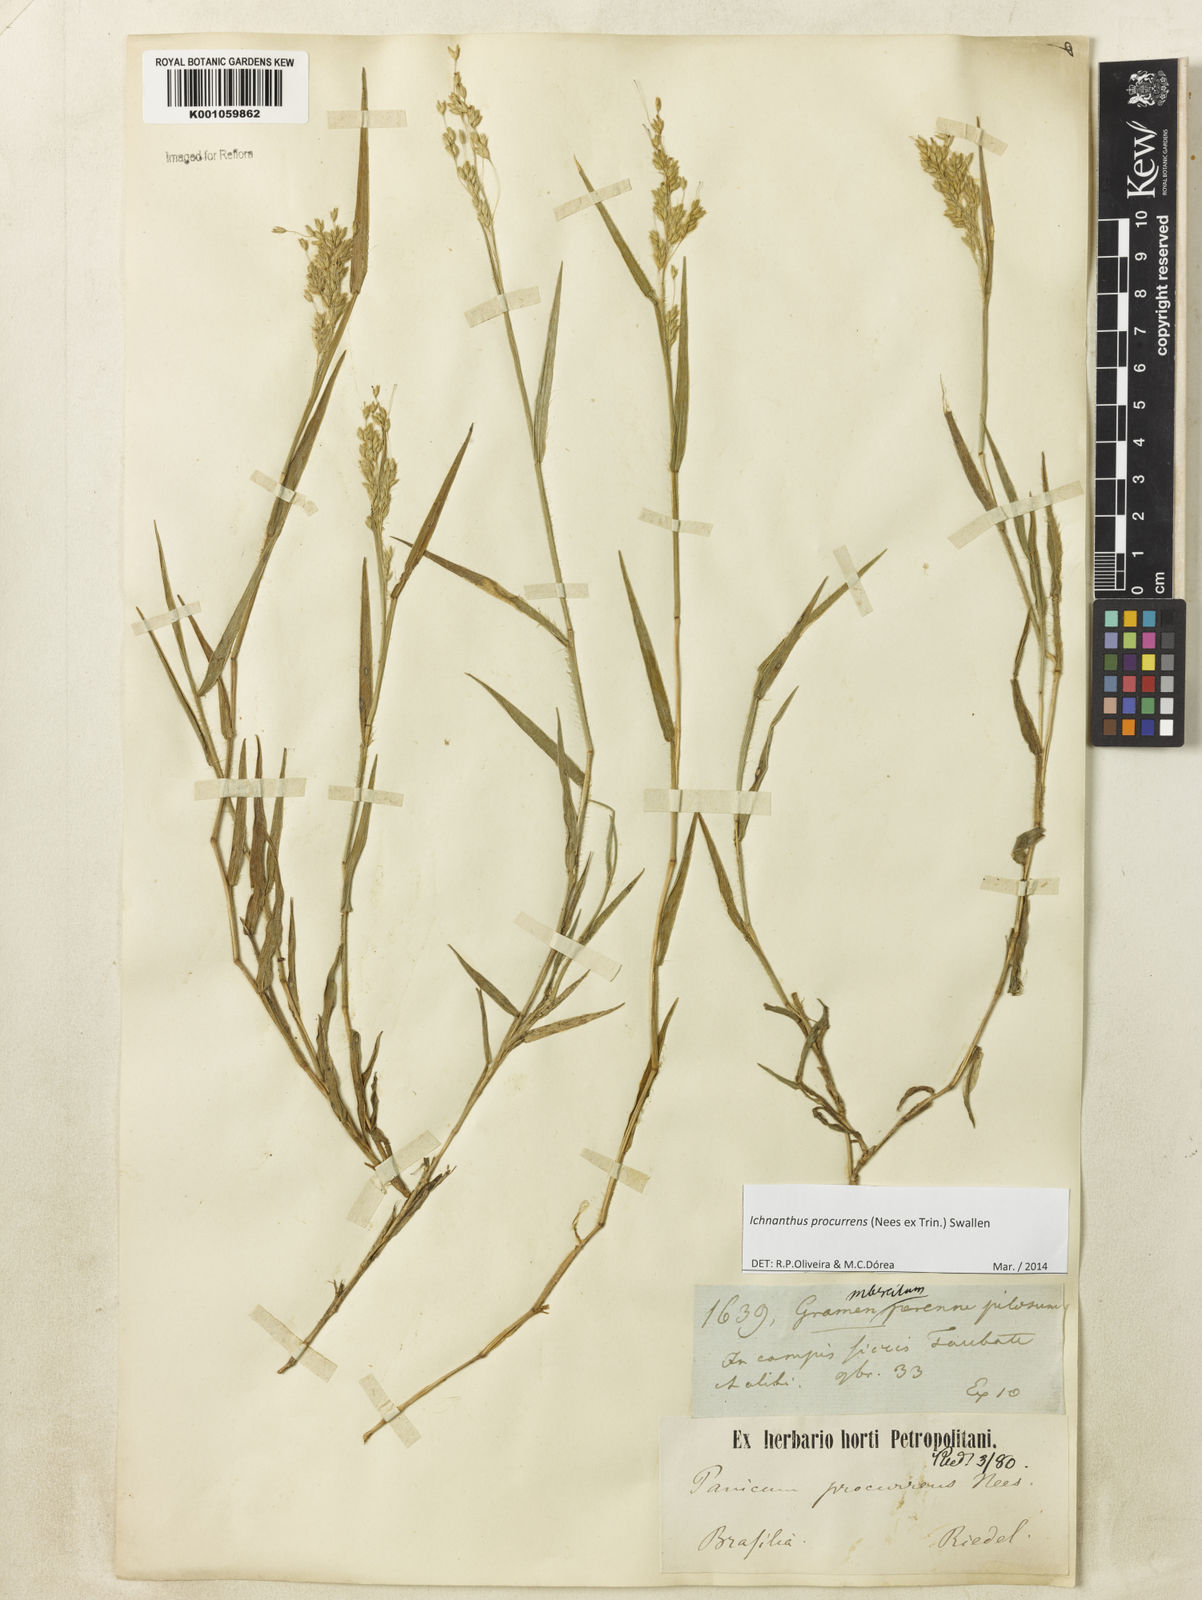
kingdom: Plantae
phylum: Tracheophyta
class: Liliopsida
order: Poales
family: Poaceae
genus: Oedochloa
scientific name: Oedochloa procurrens
